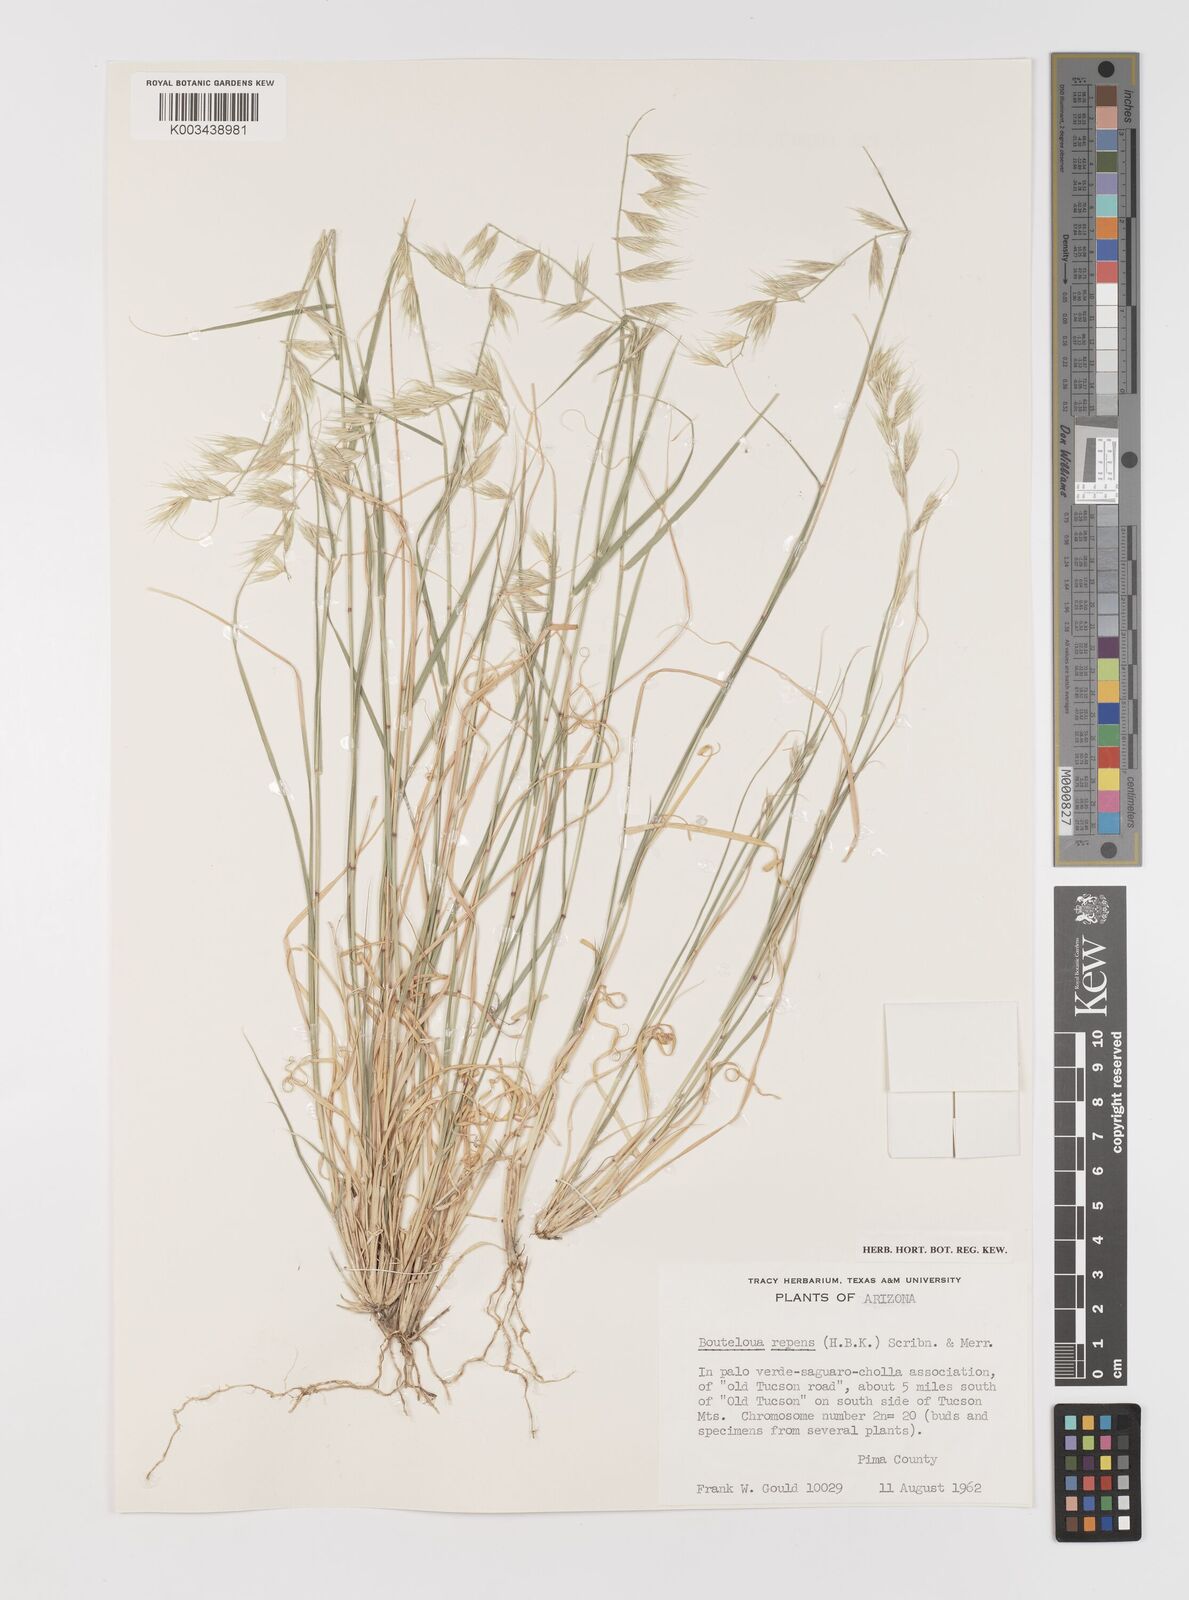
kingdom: Plantae
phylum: Tracheophyta
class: Liliopsida
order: Poales
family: Poaceae
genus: Bouteloua
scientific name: Bouteloua repens
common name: Slender grama
